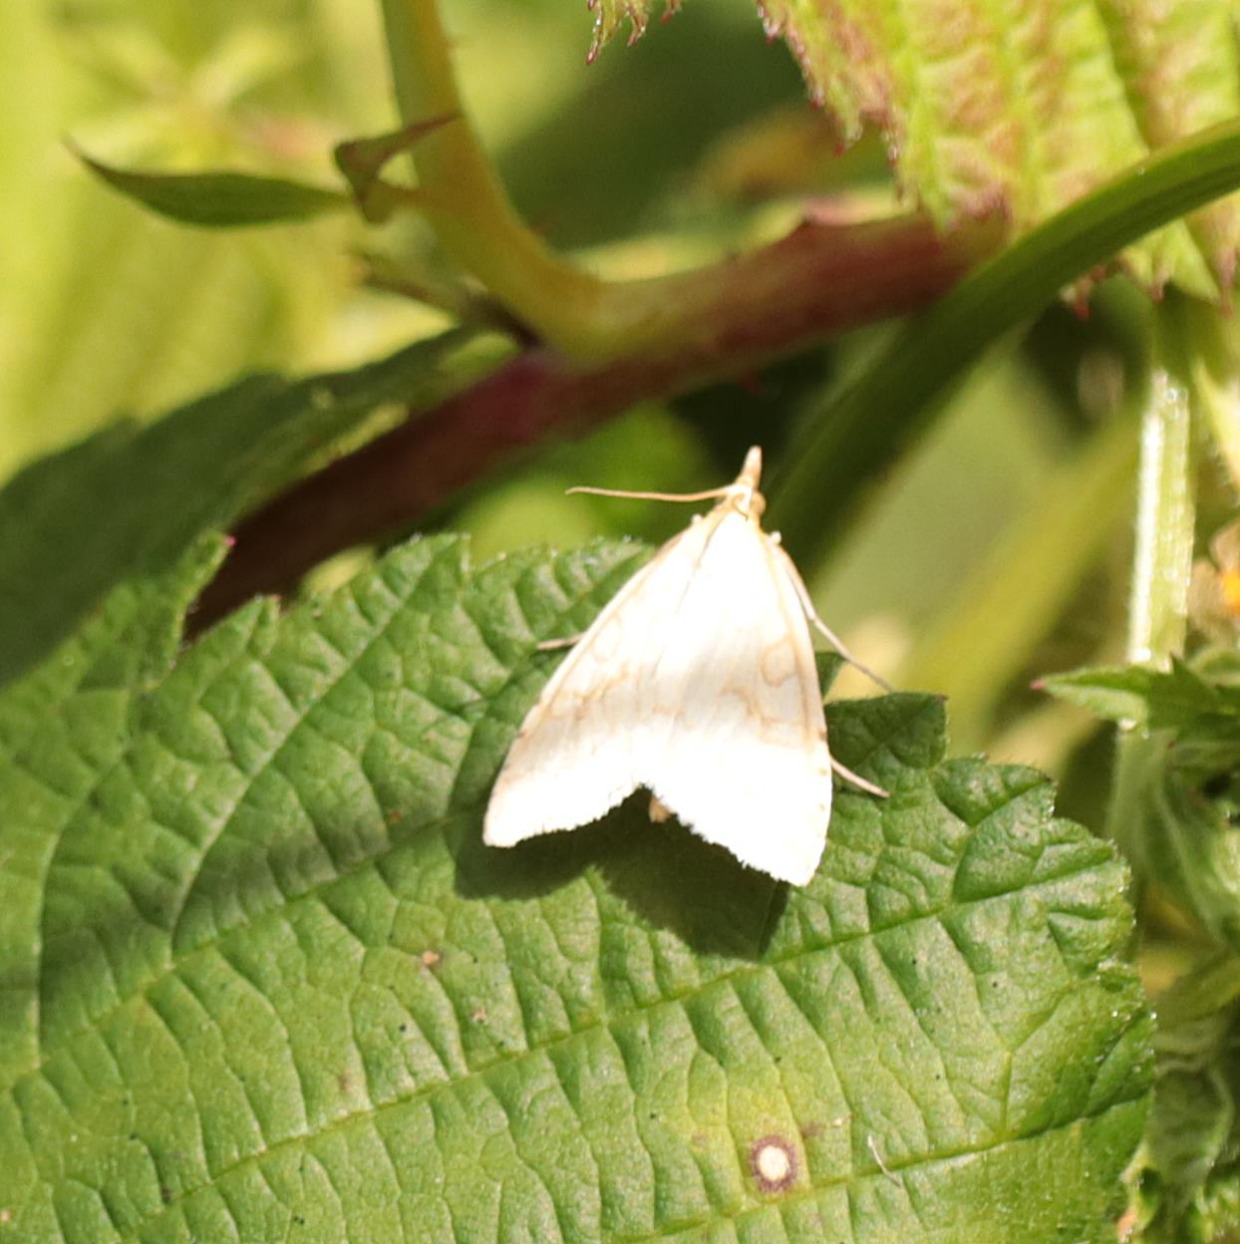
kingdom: Animalia
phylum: Arthropoda
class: Insecta
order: Lepidoptera
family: Crambidae
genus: Udea
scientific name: Udea lutealis
